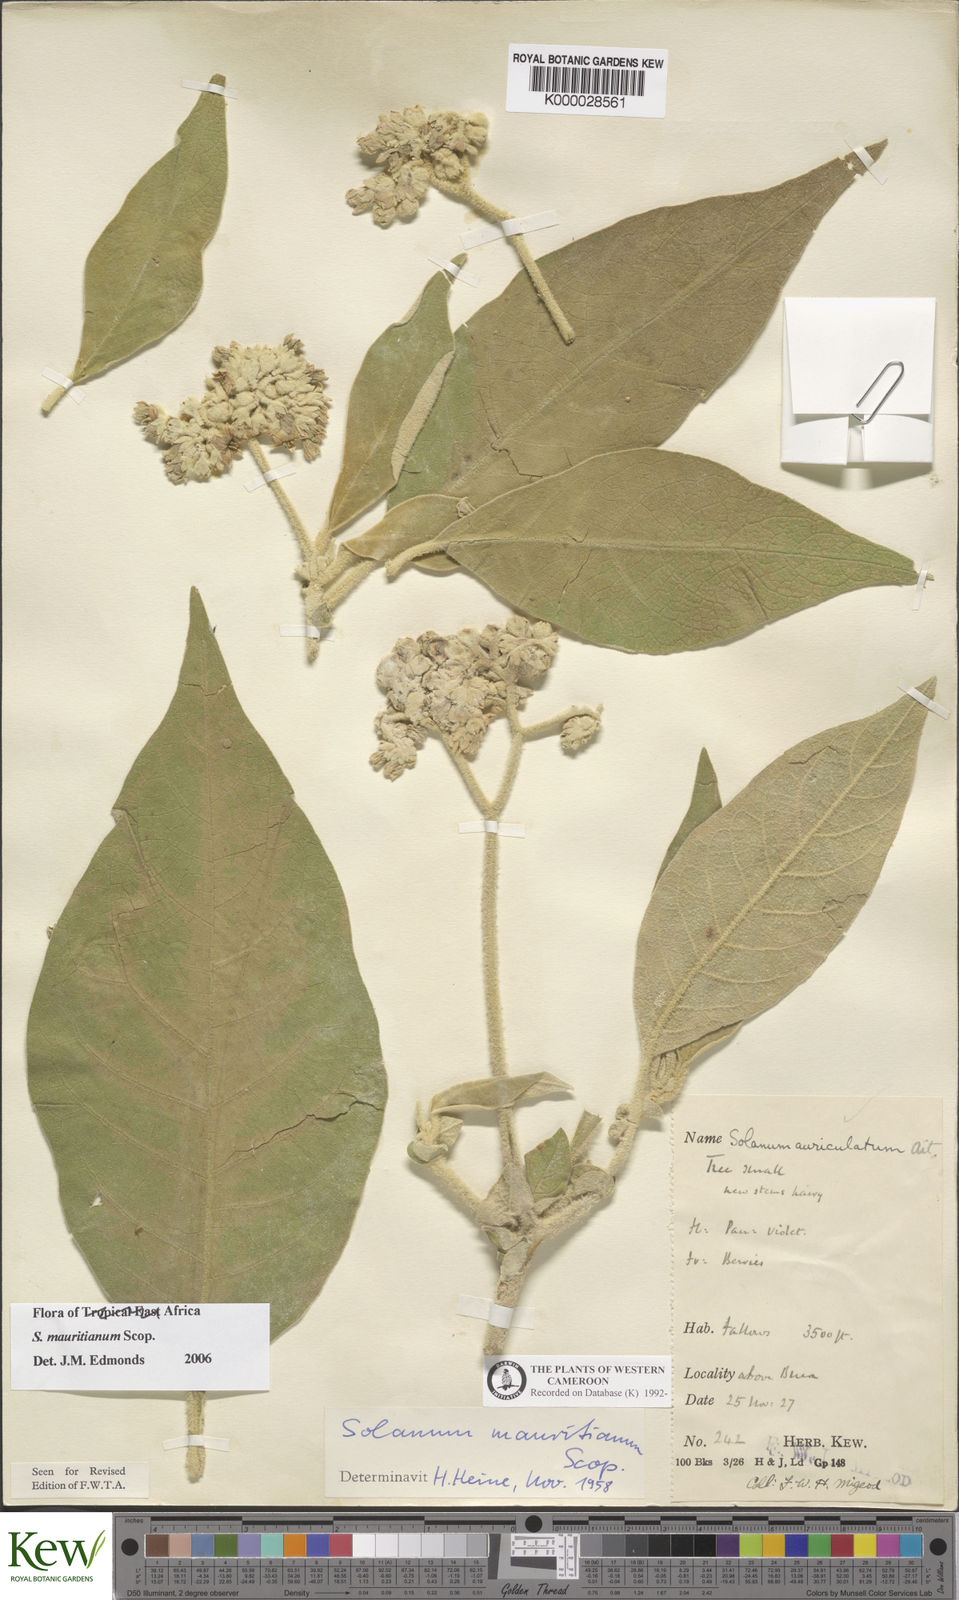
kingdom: Plantae
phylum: Tracheophyta
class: Magnoliopsida
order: Solanales
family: Solanaceae
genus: Solanum
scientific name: Solanum mauritianum
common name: Earleaf nightshade
